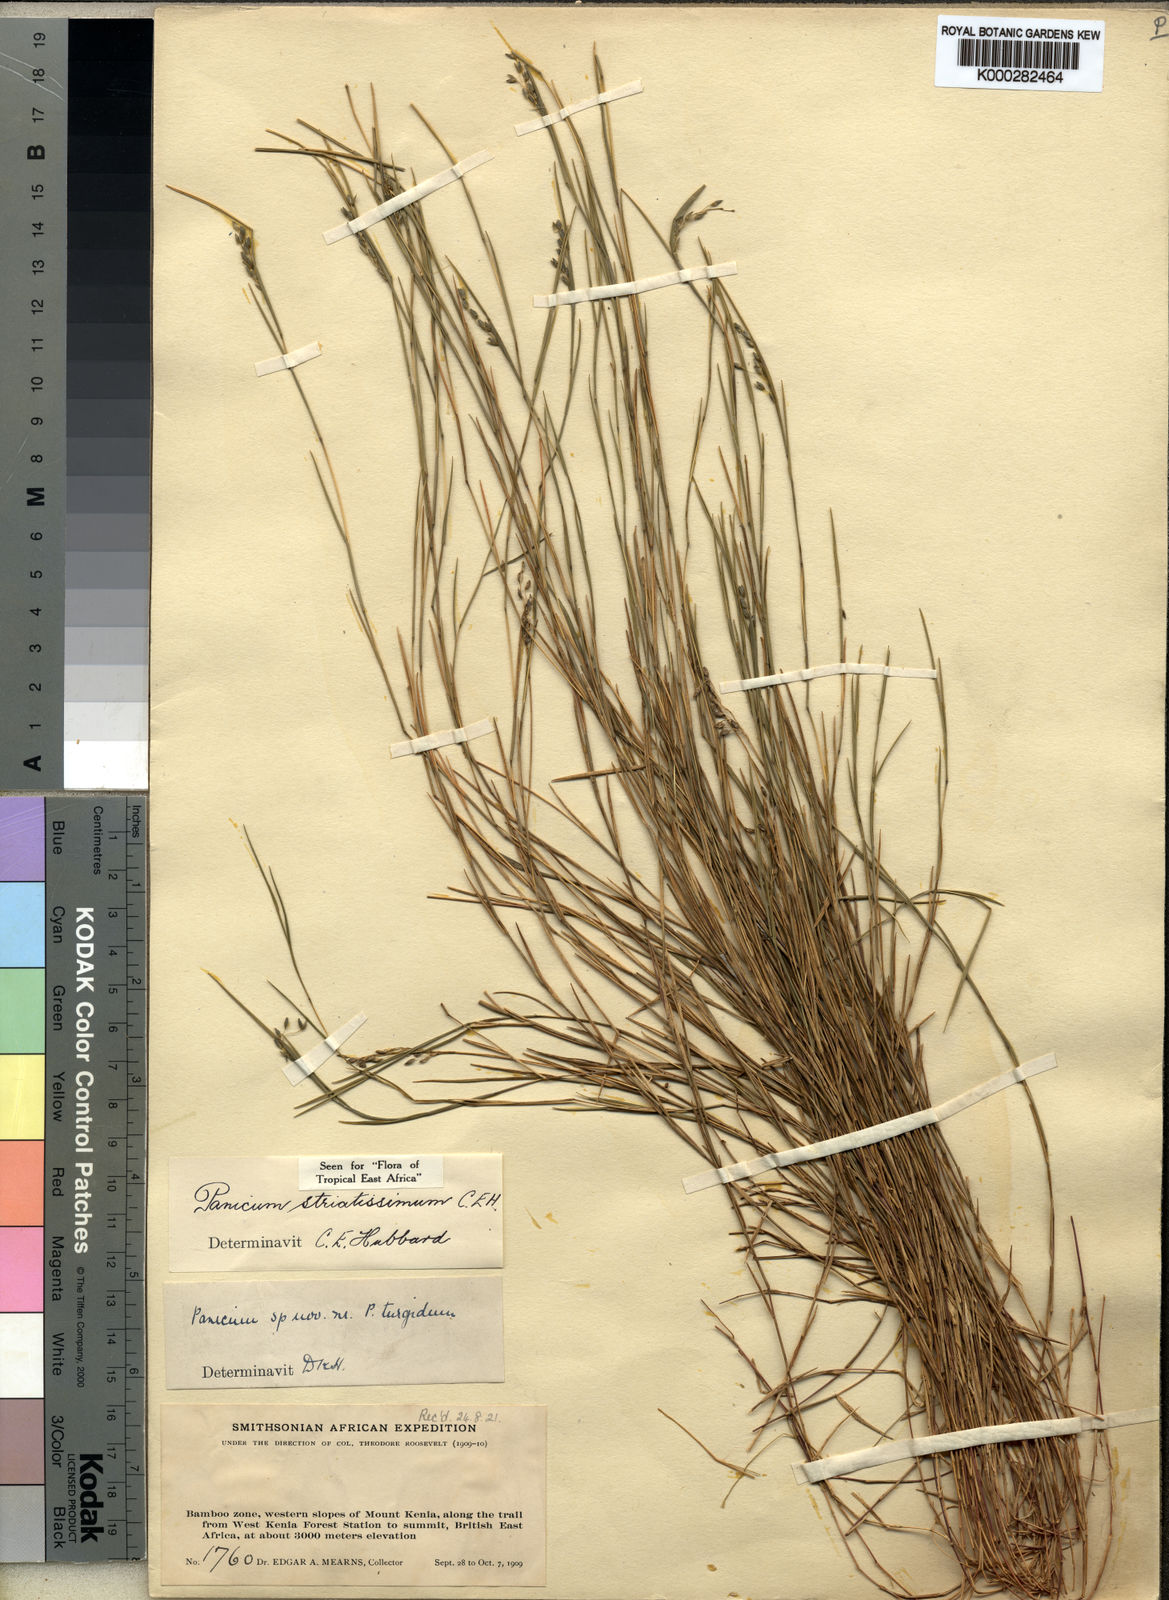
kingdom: Plantae
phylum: Tracheophyta
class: Liliopsida
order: Poales
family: Poaceae
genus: Panicum
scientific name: Panicum eickii
